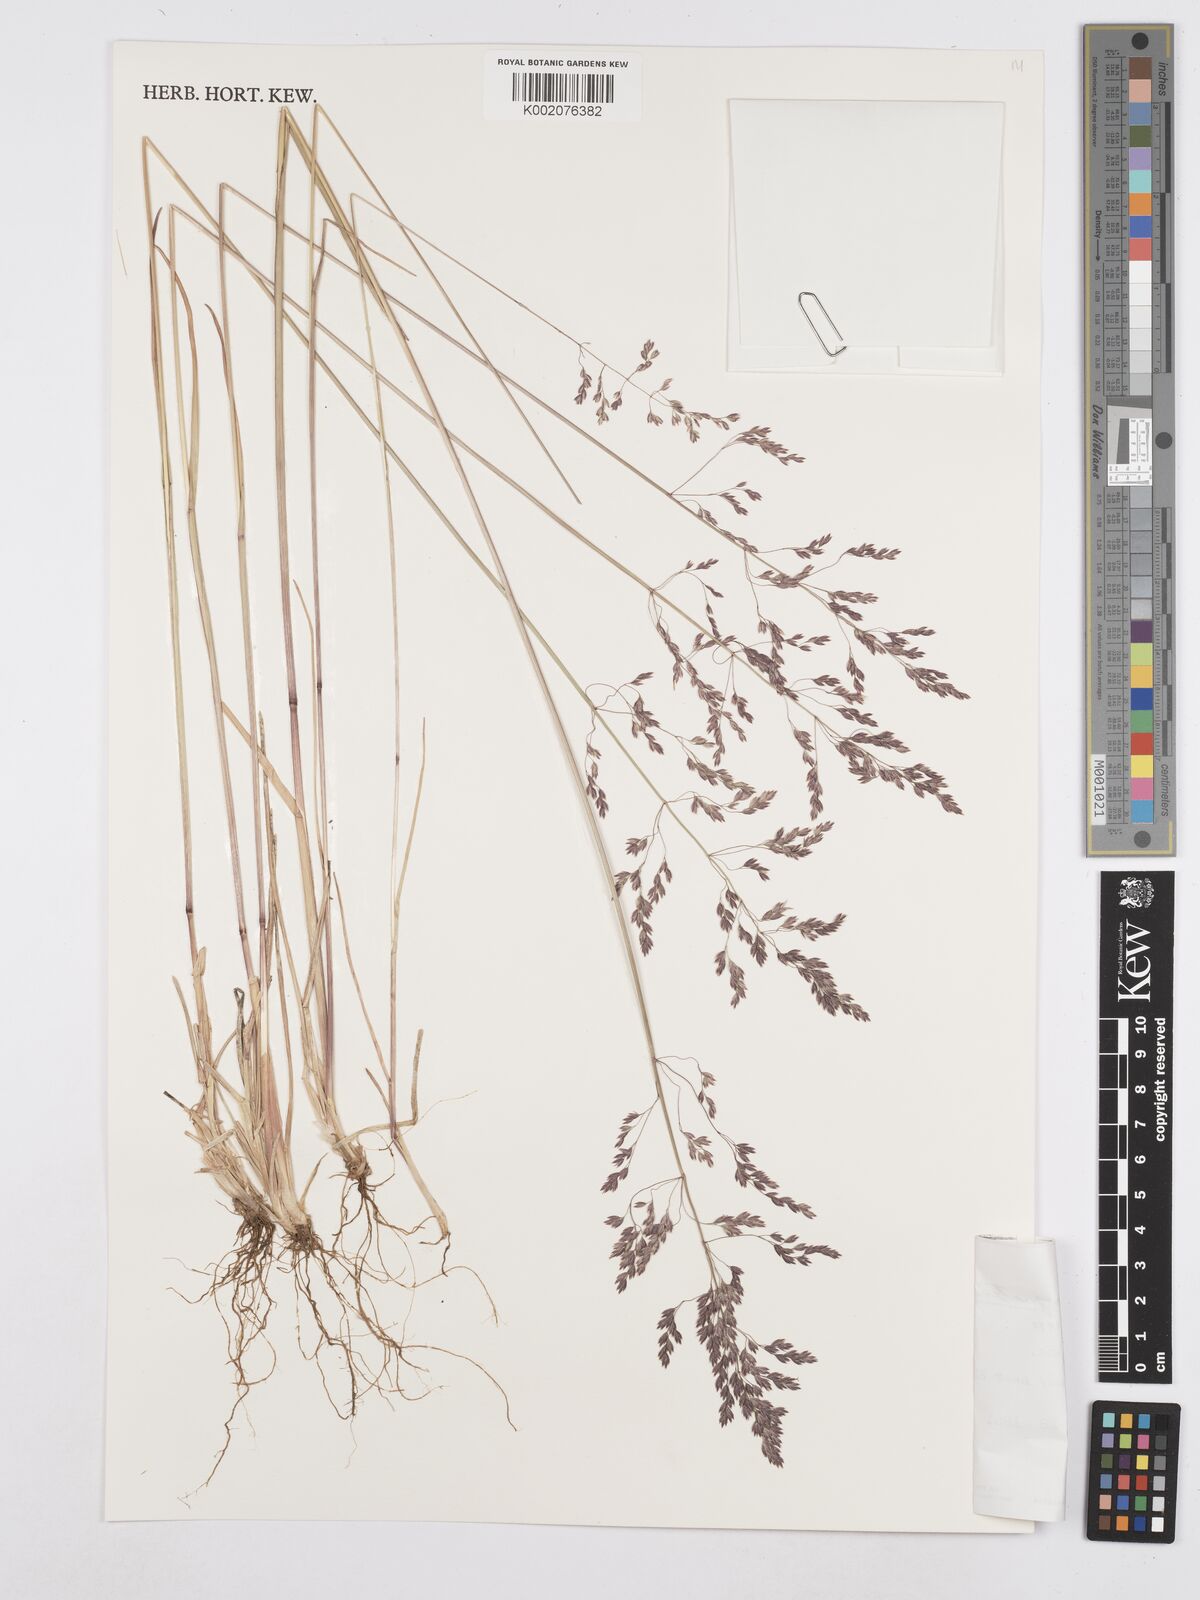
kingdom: Plantae
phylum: Tracheophyta
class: Liliopsida
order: Poales
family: Poaceae
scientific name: Poaceae
